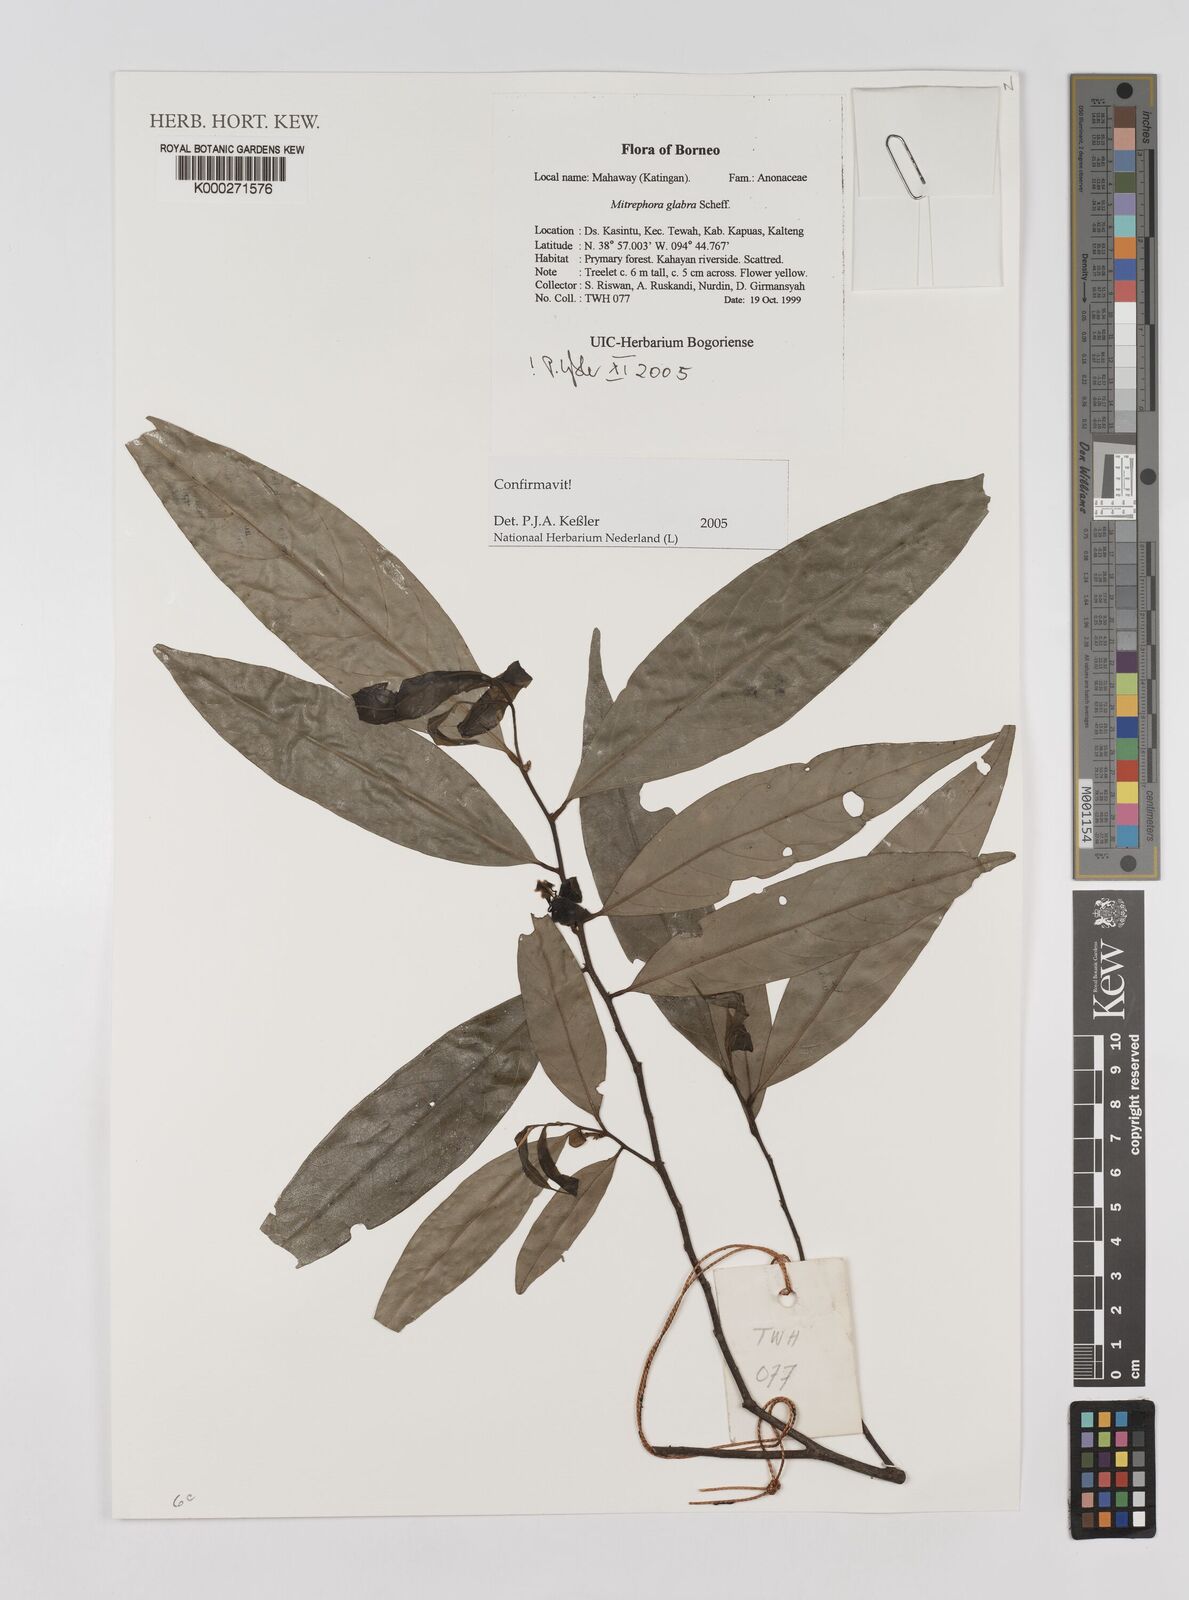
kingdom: Plantae
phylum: Tracheophyta
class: Magnoliopsida
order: Magnoliales
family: Annonaceae
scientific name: Annonaceae
